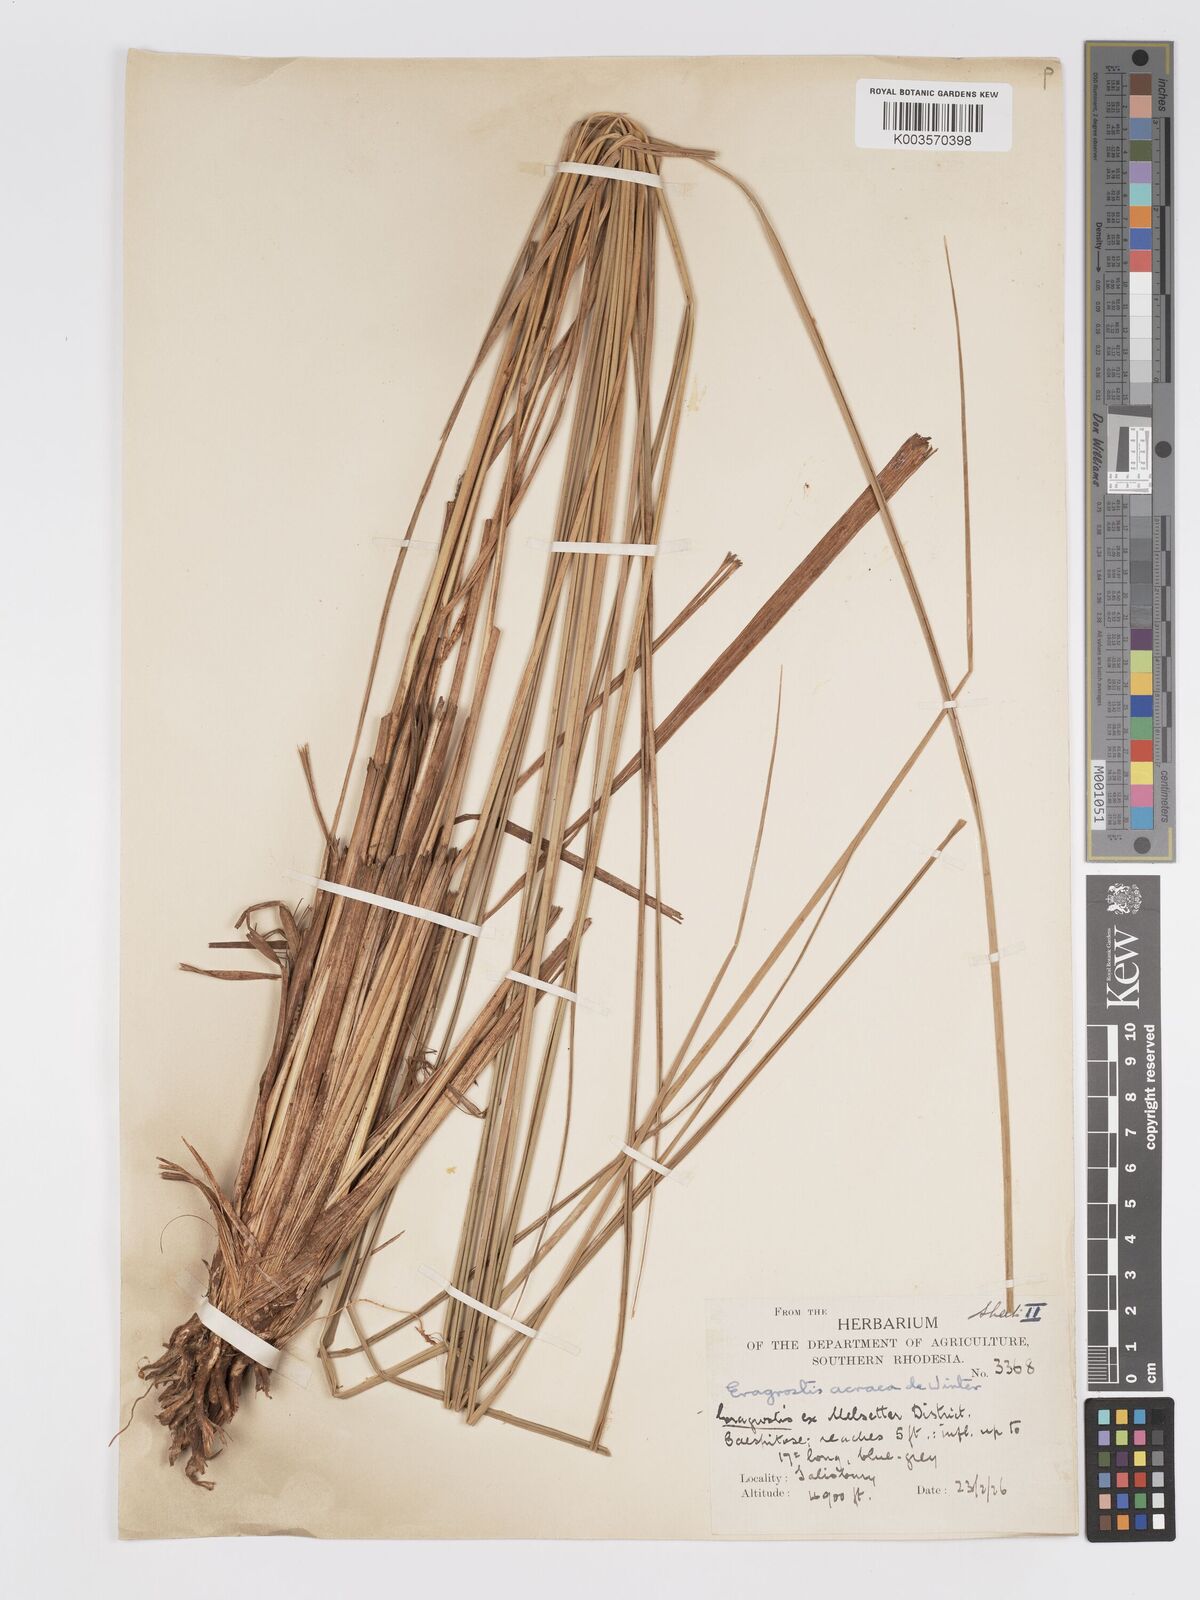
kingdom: Plantae
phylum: Tracheophyta
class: Liliopsida
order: Poales
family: Poaceae
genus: Eragrostis
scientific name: Eragrostis acraea
